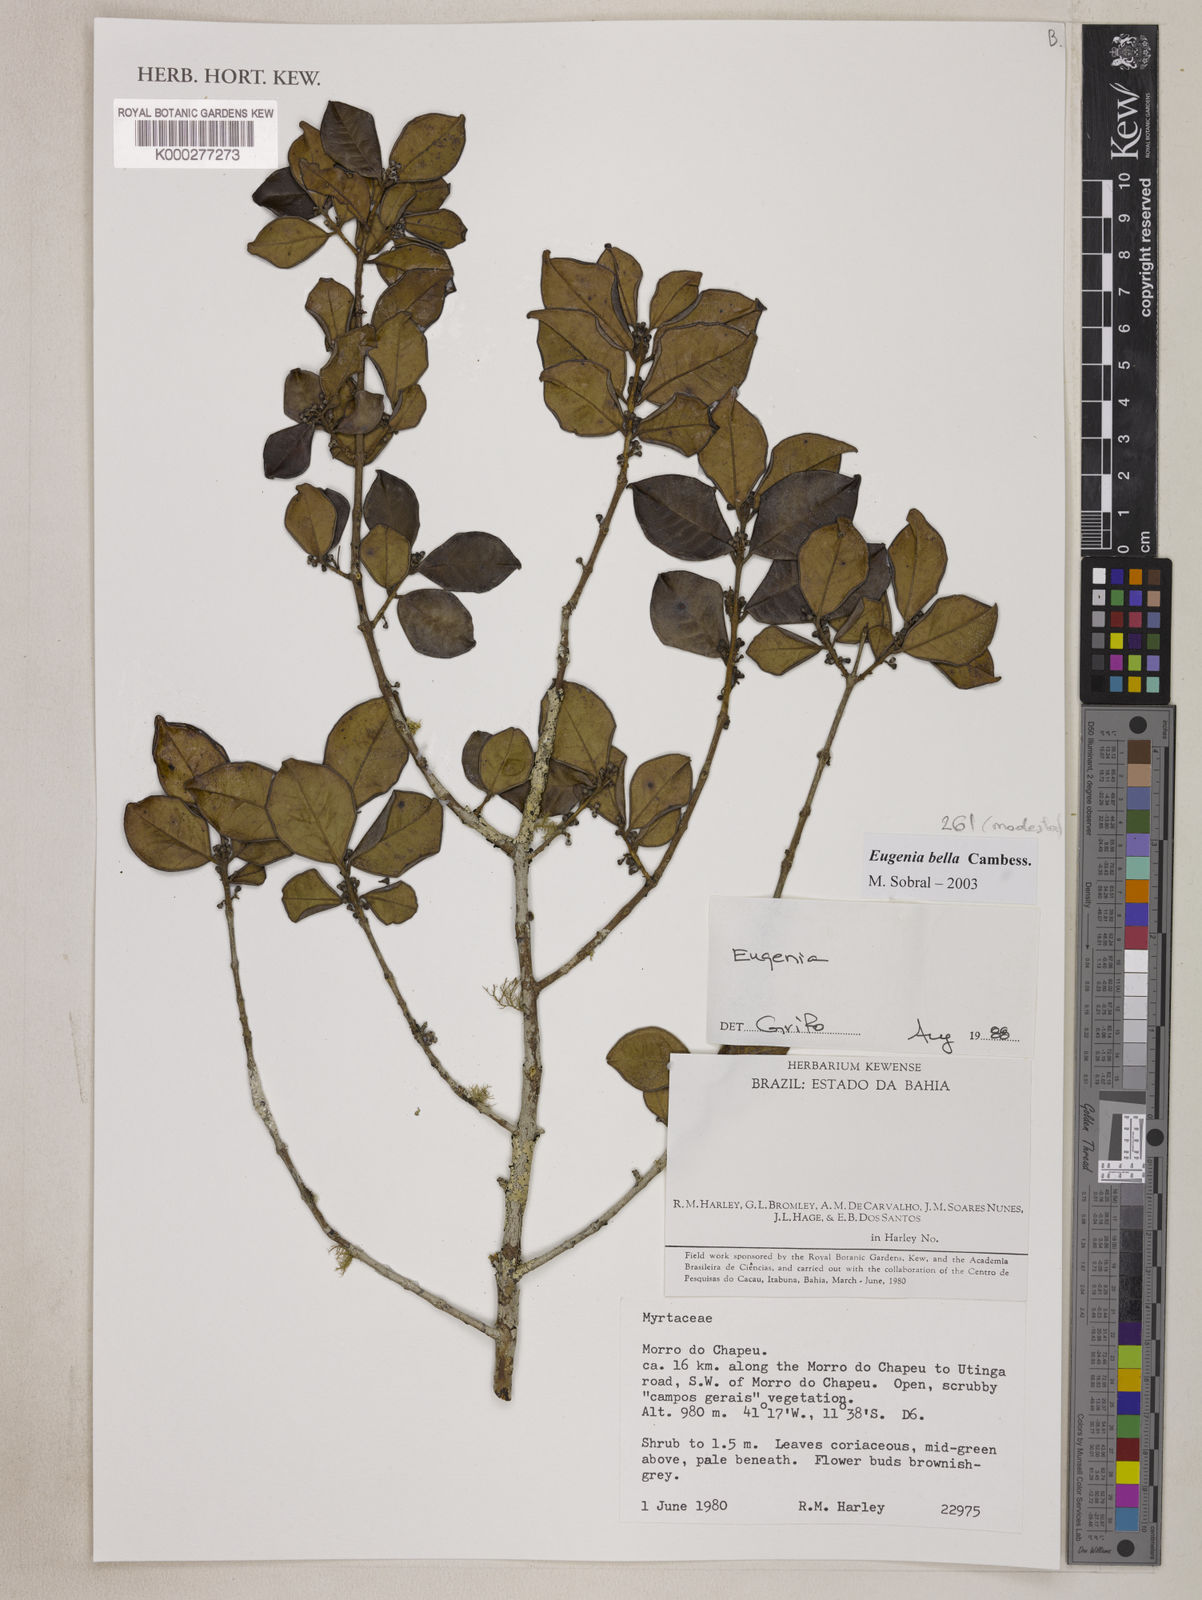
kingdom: Plantae
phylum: Tracheophyta
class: Magnoliopsida
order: Myrtales
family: Myrtaceae
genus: Eugenia
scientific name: Eugenia modesta
